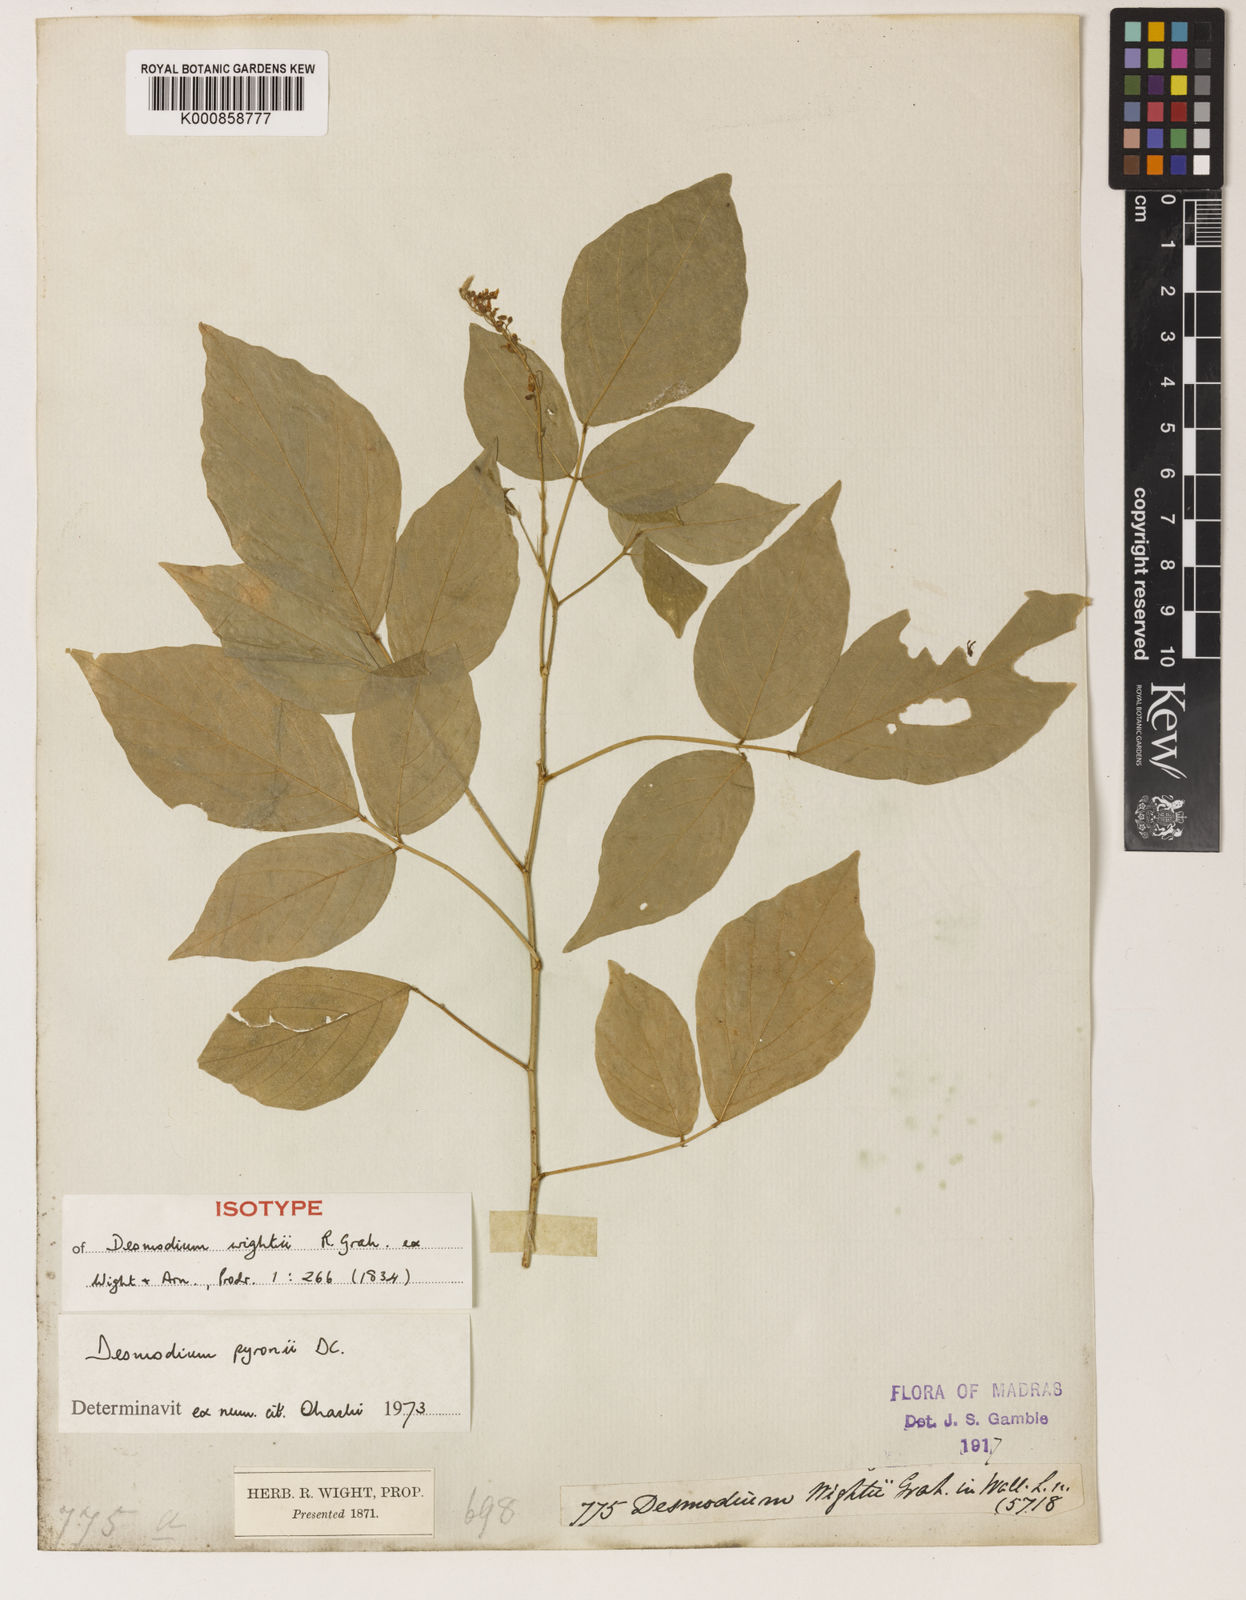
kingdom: Plantae
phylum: Tracheophyta
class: Magnoliopsida
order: Fabales
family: Fabaceae
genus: Pleurolobus
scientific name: Pleurolobus pryonii
